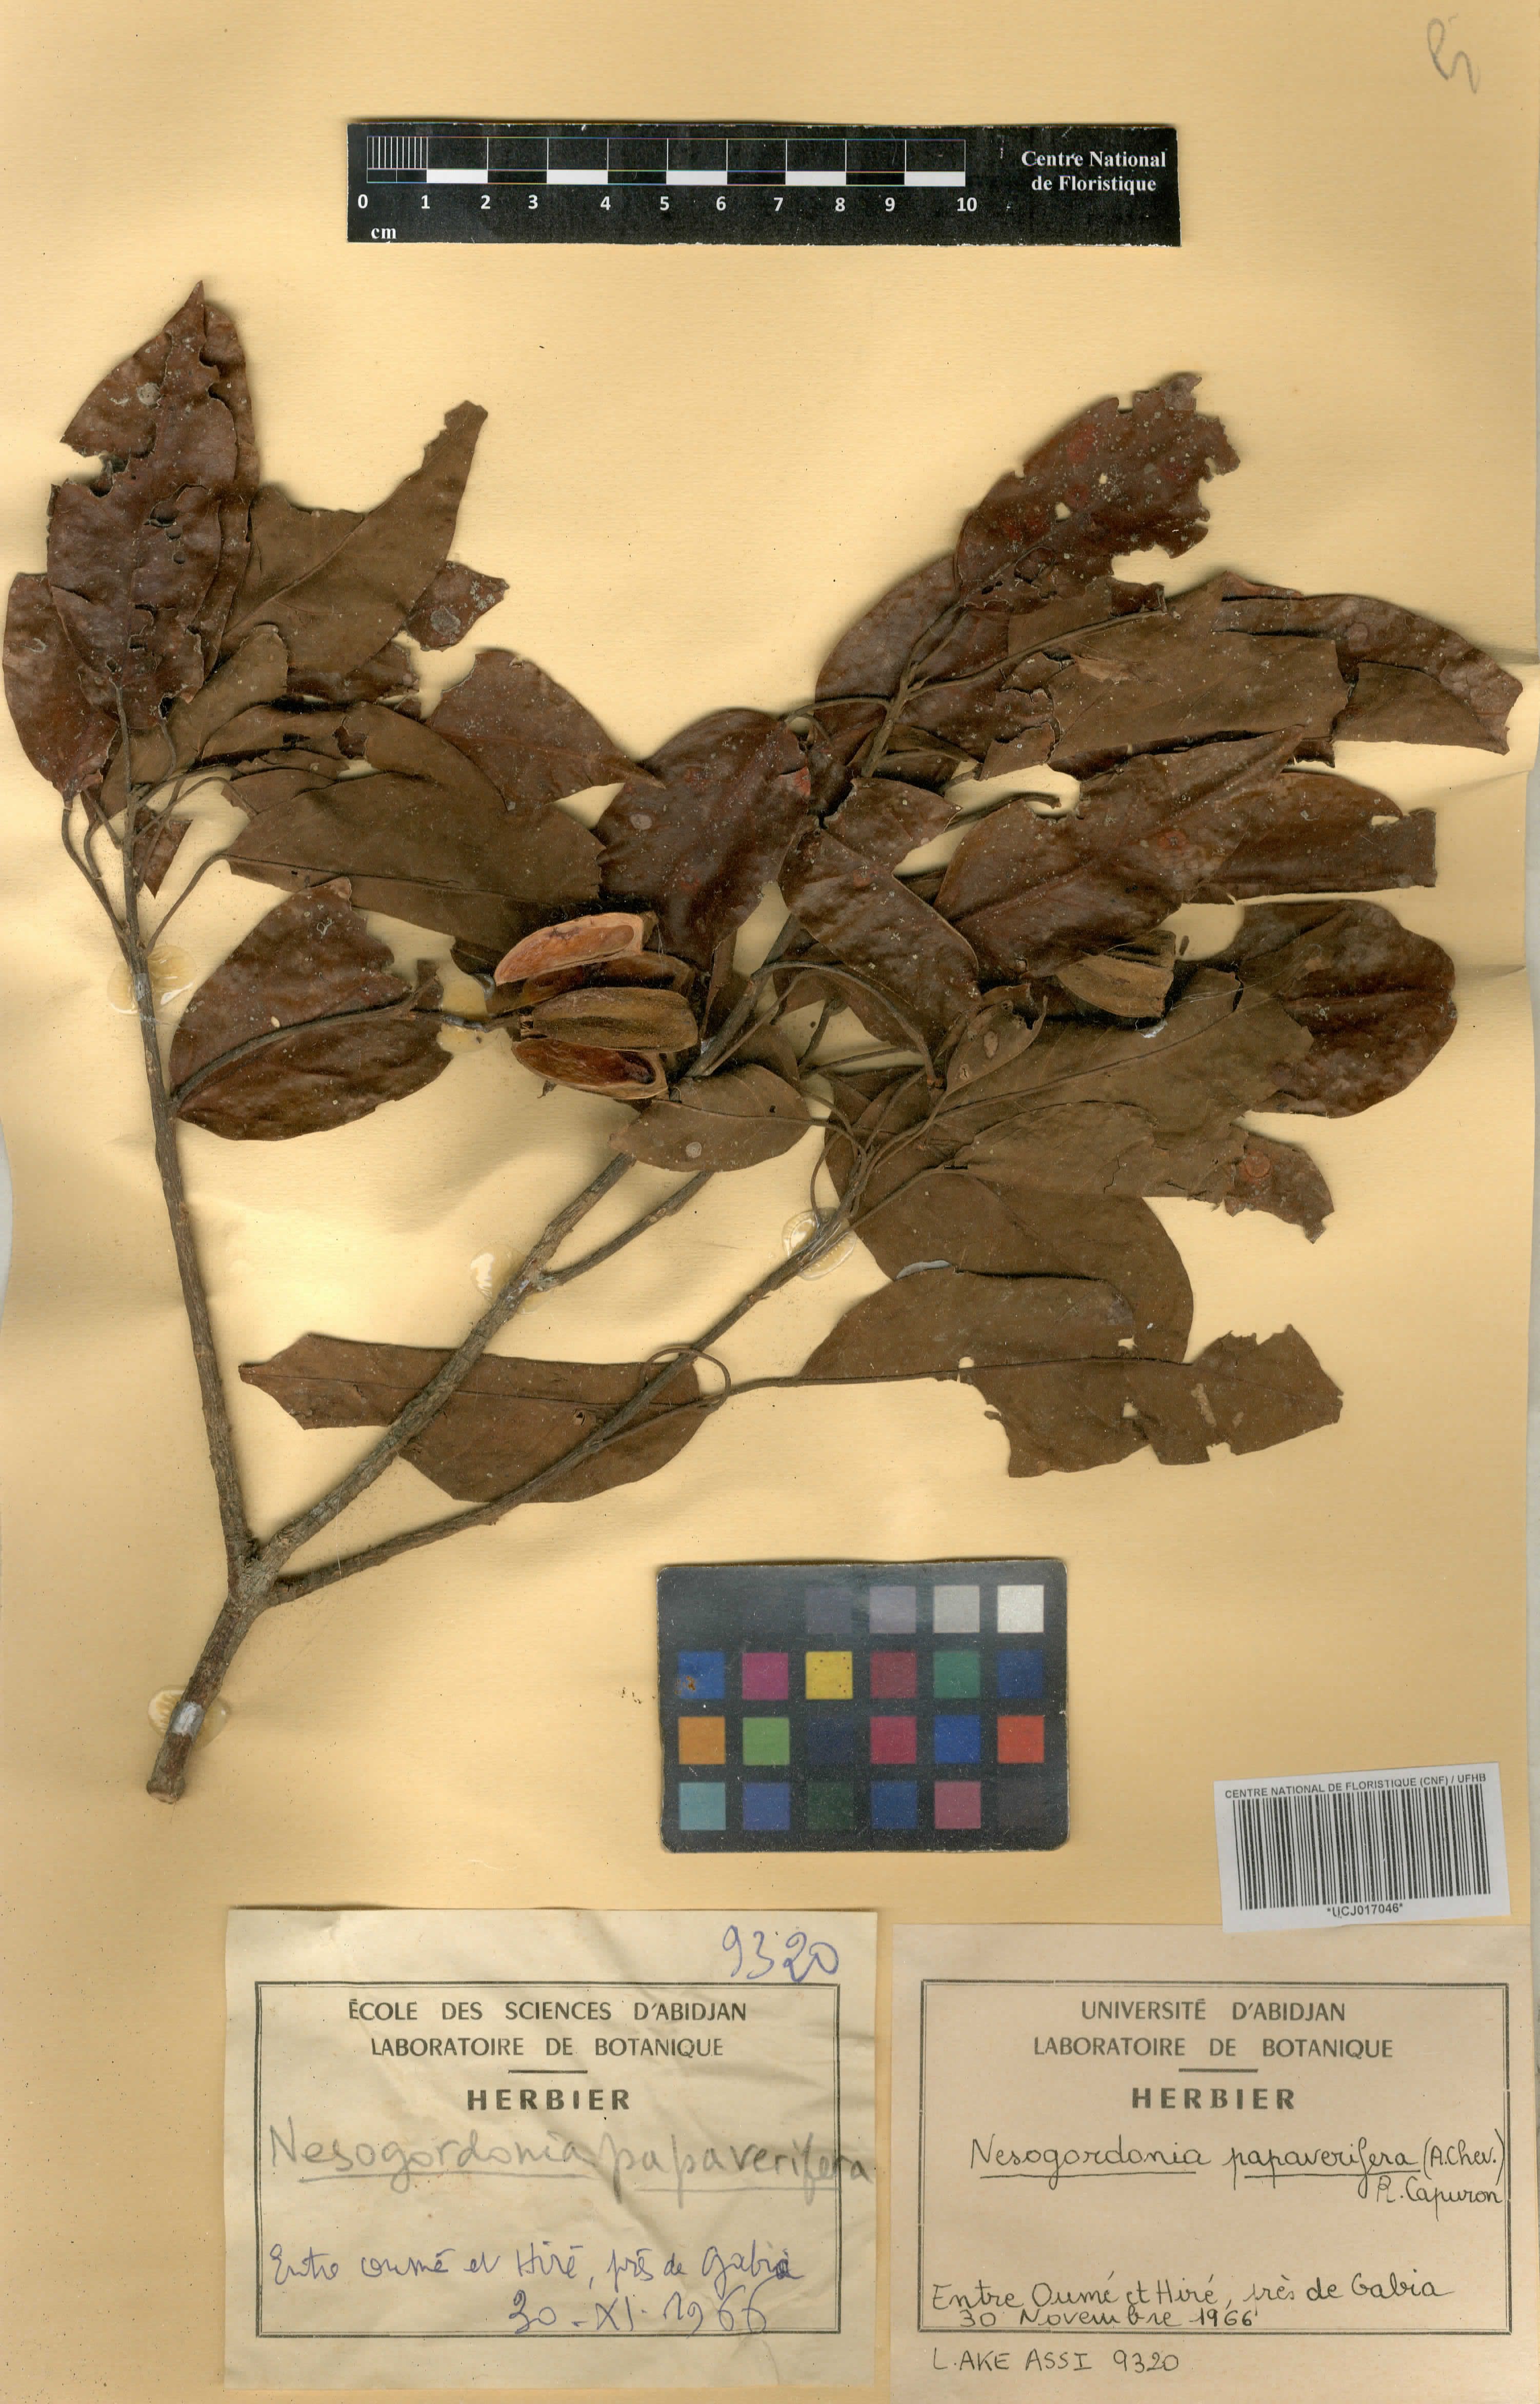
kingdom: Plantae
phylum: Tracheophyta
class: Magnoliopsida
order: Malvales
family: Malvaceae
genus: Nesogordonia
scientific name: Nesogordonia papaverifera
